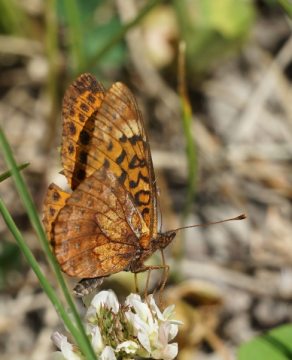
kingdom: Animalia
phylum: Arthropoda
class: Insecta
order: Lepidoptera
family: Nymphalidae
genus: Clossiana
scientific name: Clossiana toddi
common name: Meadow Fritillary
